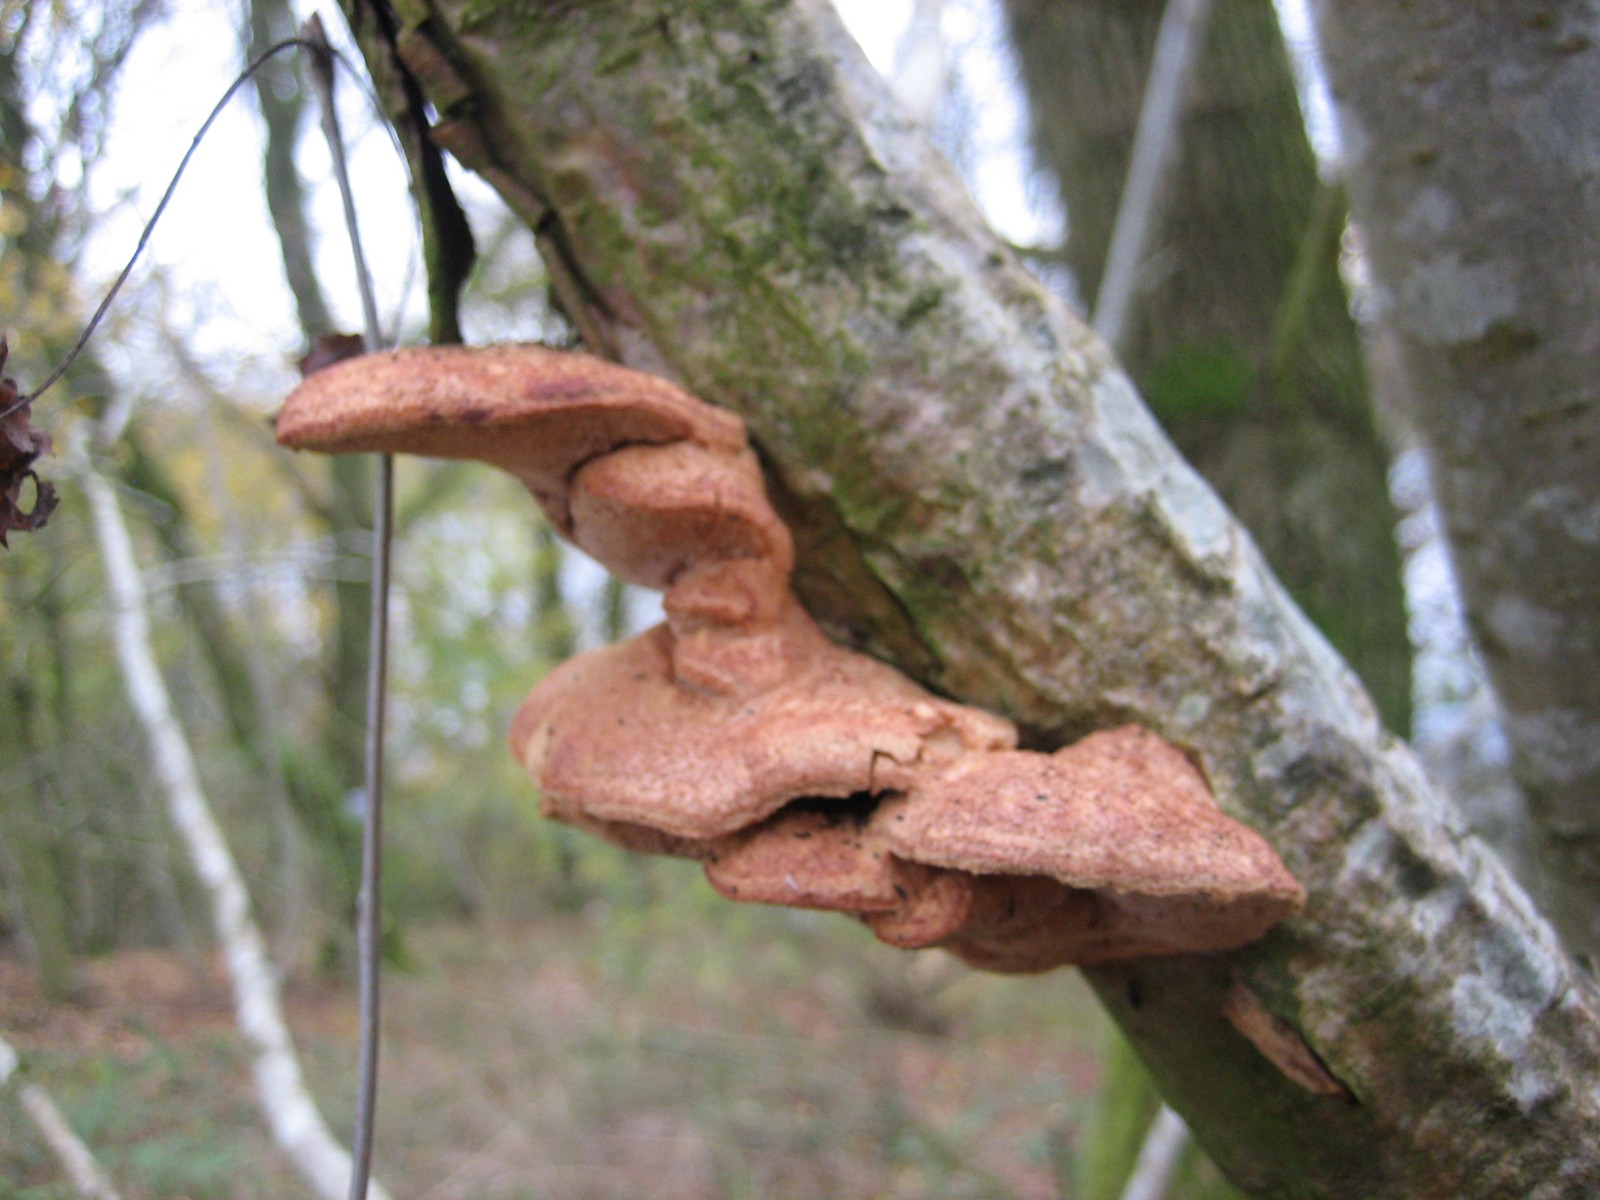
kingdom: Fungi
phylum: Basidiomycota
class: Agaricomycetes
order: Polyporales
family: Phanerochaetaceae
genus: Hapalopilus
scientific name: Hapalopilus rutilans
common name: rødlig okkerporesvamp
